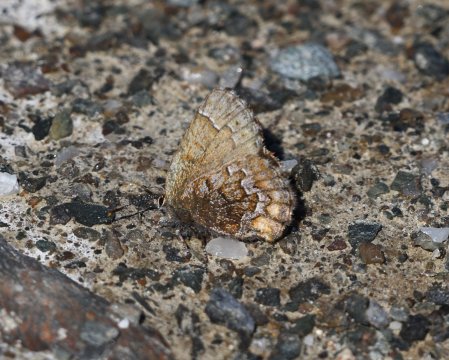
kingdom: Animalia
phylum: Arthropoda
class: Insecta
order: Lepidoptera
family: Lycaenidae
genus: Incisalia
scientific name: Incisalia niphon
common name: Eastern Pine Elfin
